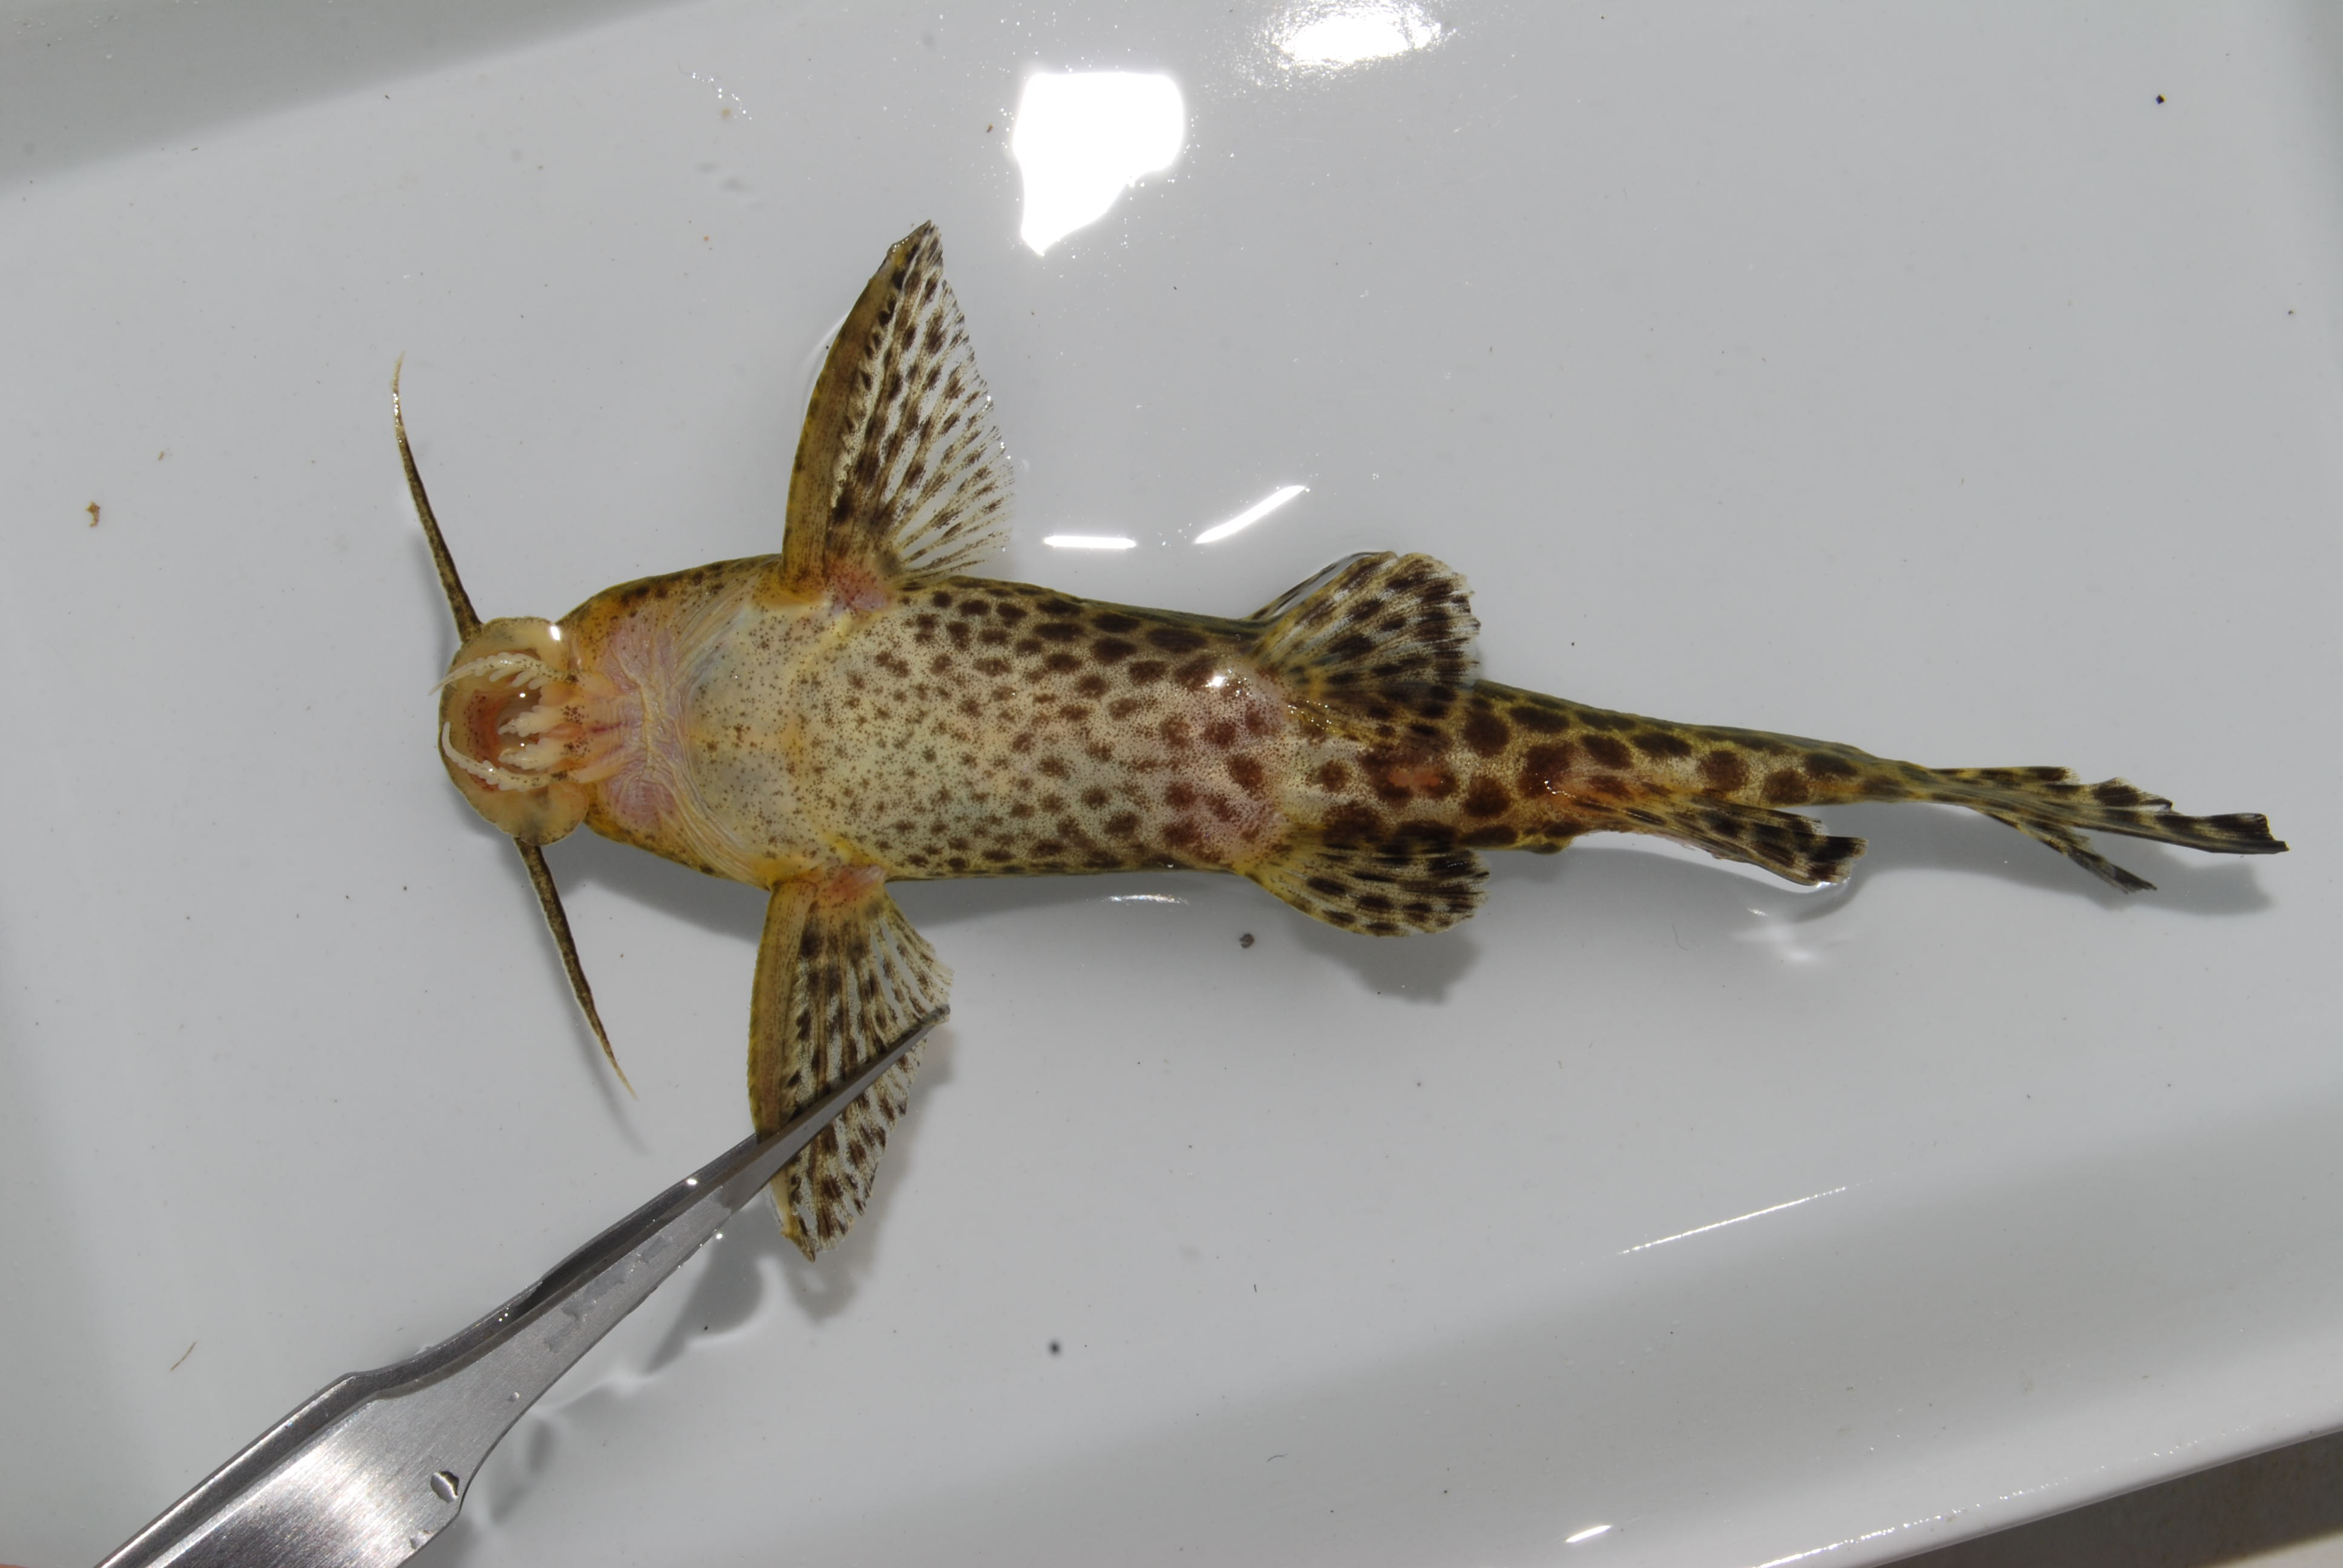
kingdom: Animalia
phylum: Chordata
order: Siluriformes
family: Mochokidae
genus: Synodontis
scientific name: Synodontis
